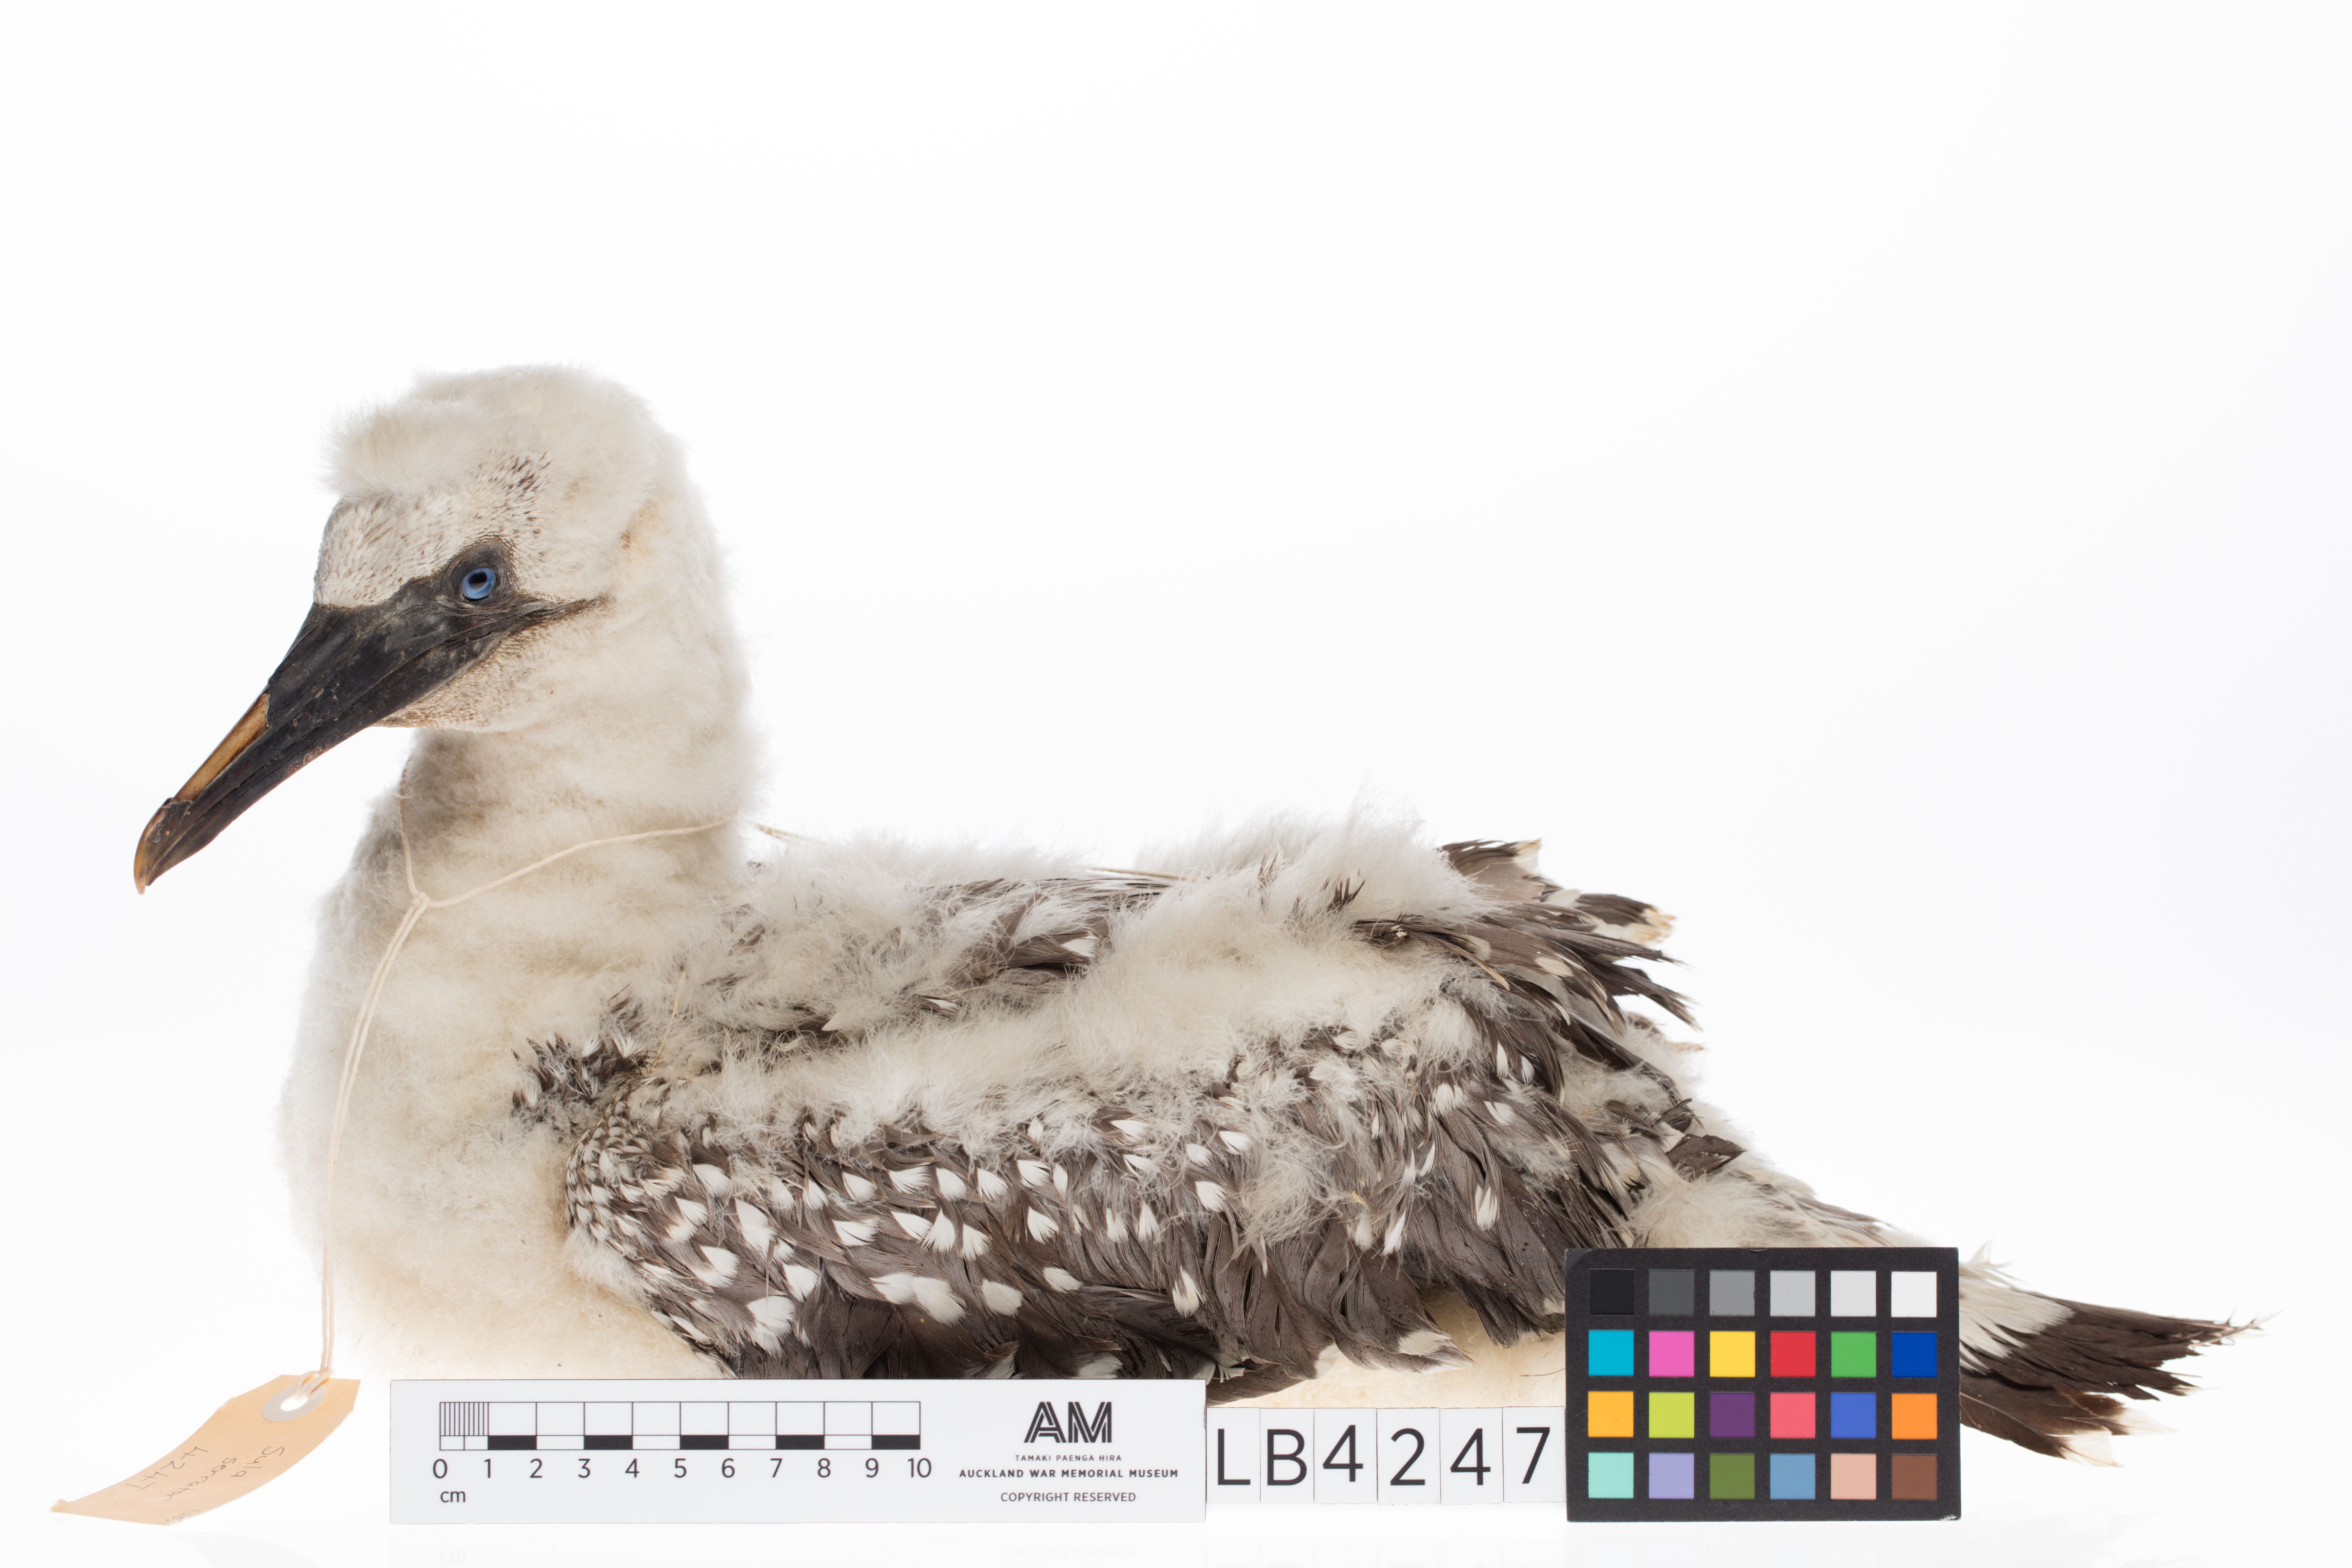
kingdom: Animalia
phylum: Chordata
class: Aves
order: Suliformes
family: Sulidae
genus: Morus
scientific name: Morus serrator
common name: Australasian gannet
